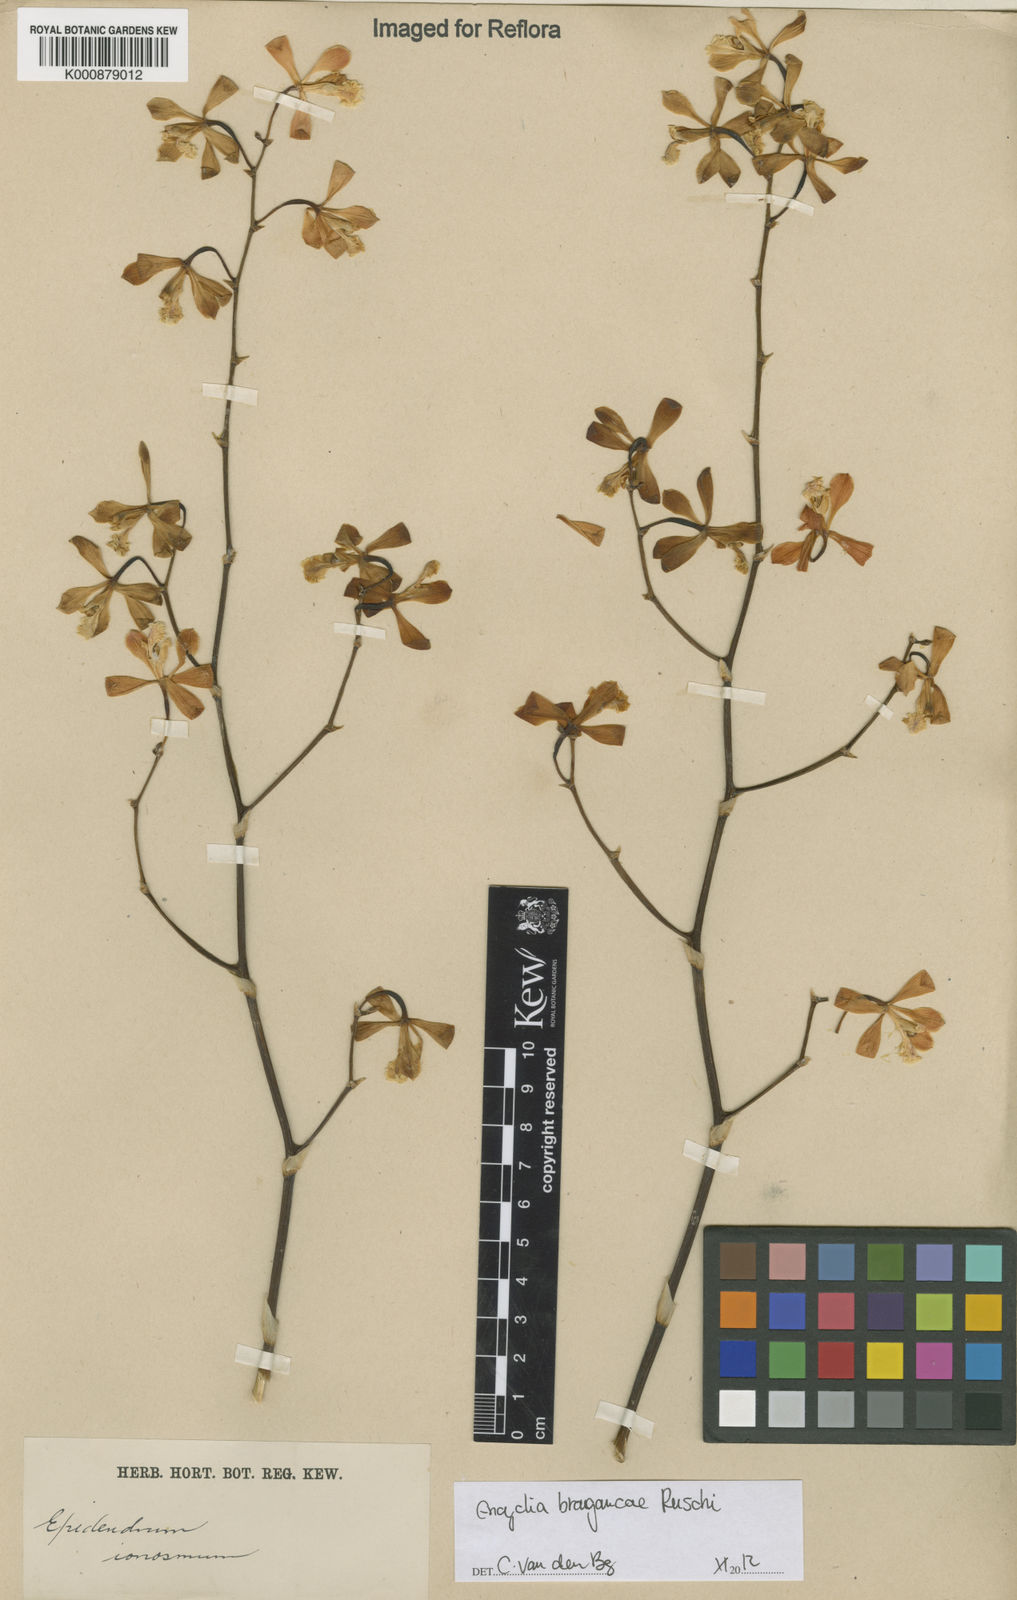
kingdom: Plantae
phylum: Tracheophyta
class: Liliopsida
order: Asparagales
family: Orchidaceae
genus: Encyclia
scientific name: Encyclia bragancae
